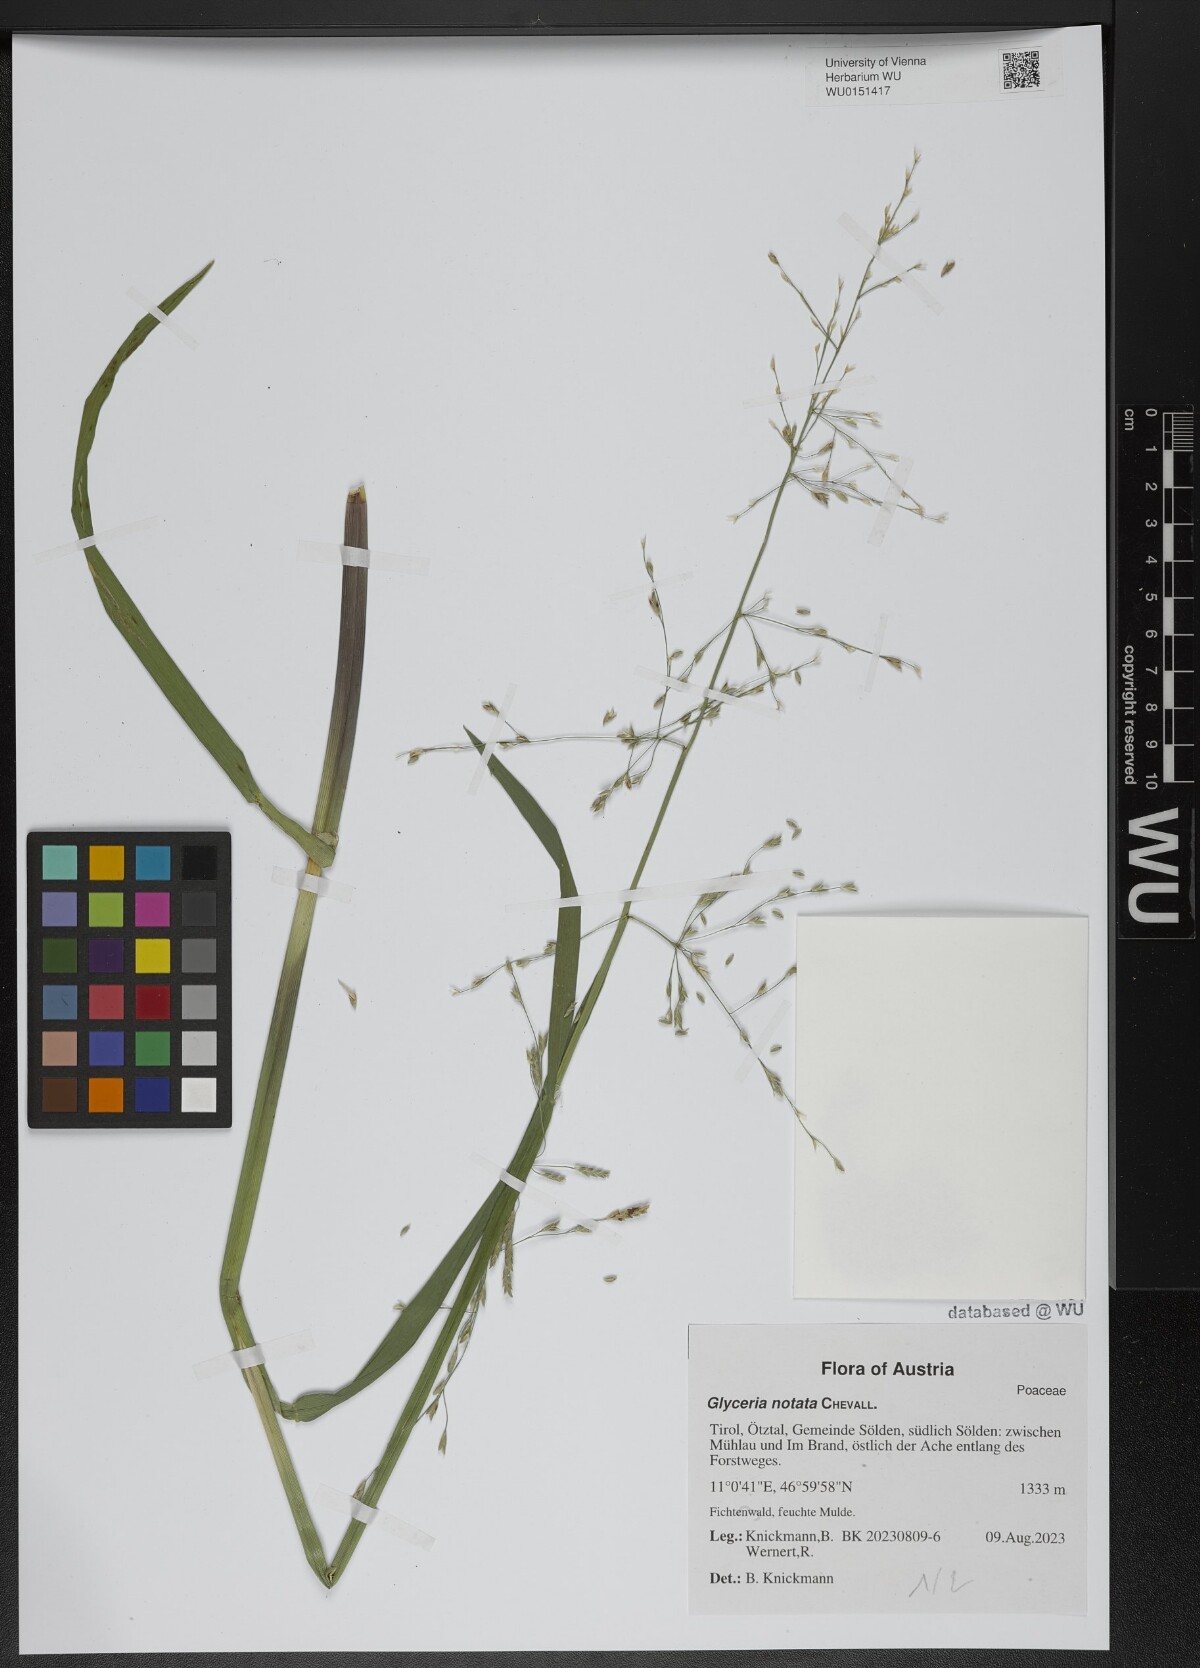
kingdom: Plantae
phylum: Tracheophyta
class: Liliopsida
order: Poales
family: Poaceae
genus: Glyceria
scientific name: Glyceria notata
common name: Plicate sweet-grass
